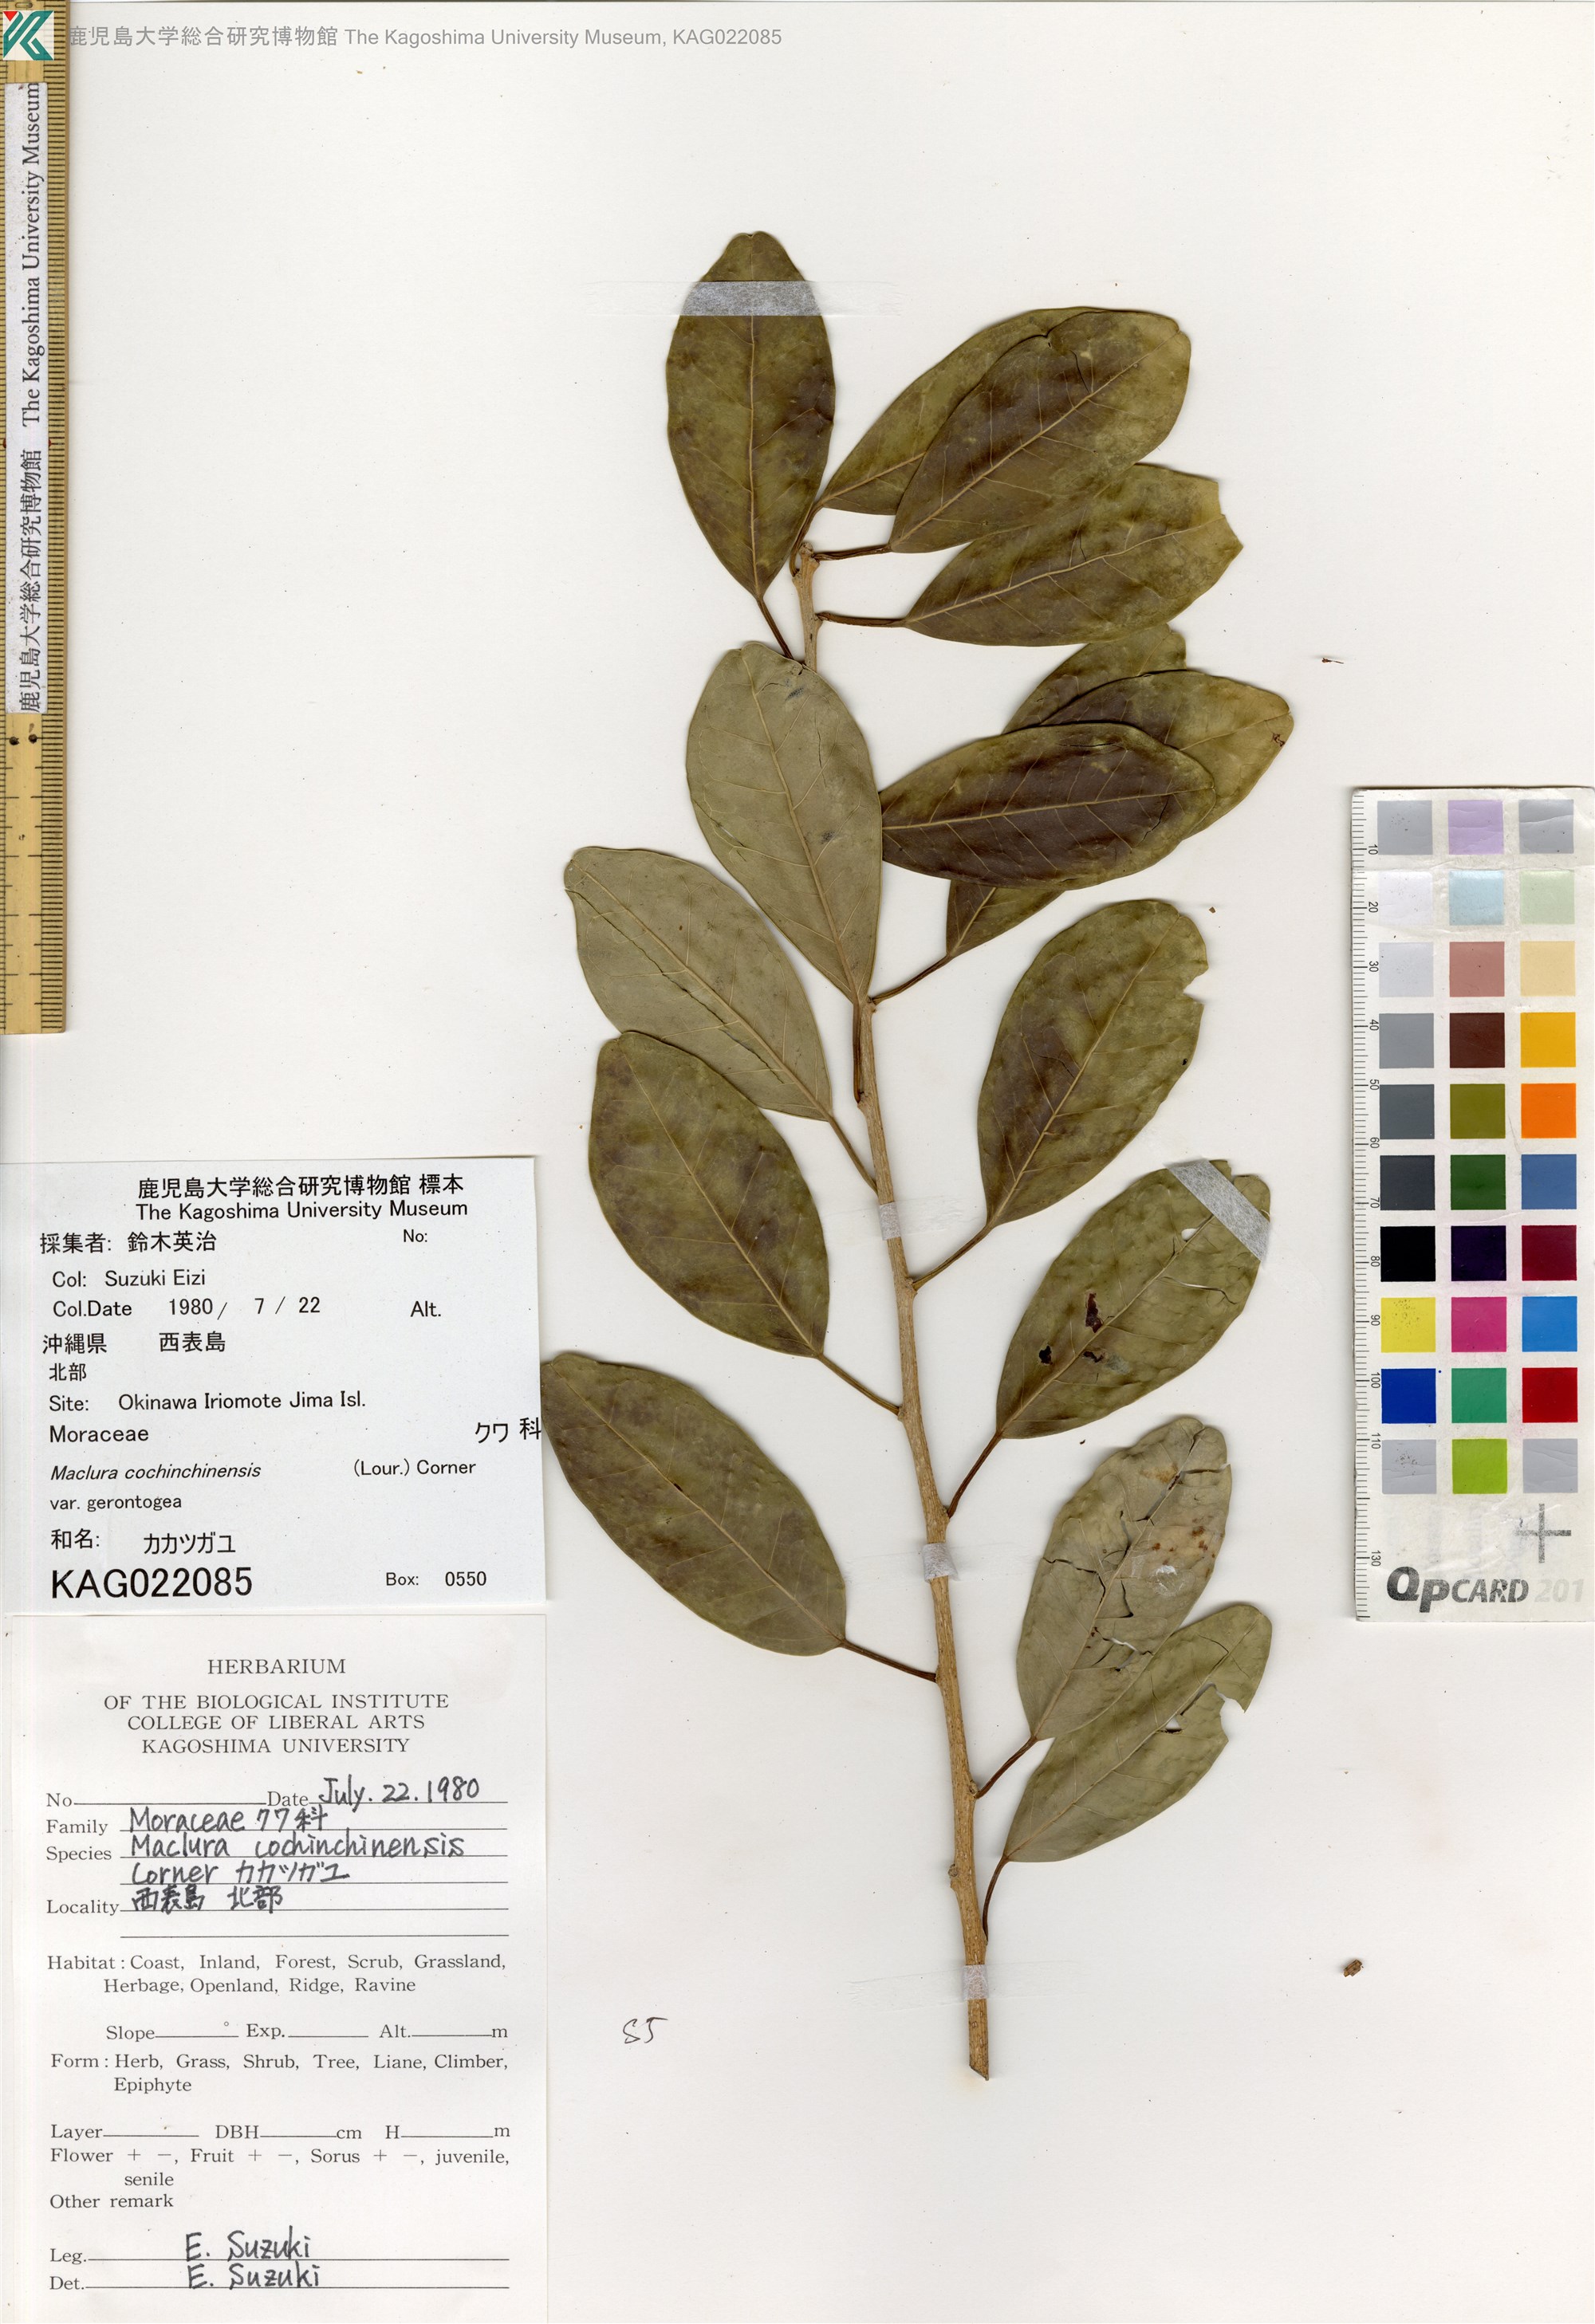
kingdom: Plantae
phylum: Tracheophyta
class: Magnoliopsida
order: Rosales
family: Moraceae
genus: Maclura
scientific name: Maclura cochinchinensis
